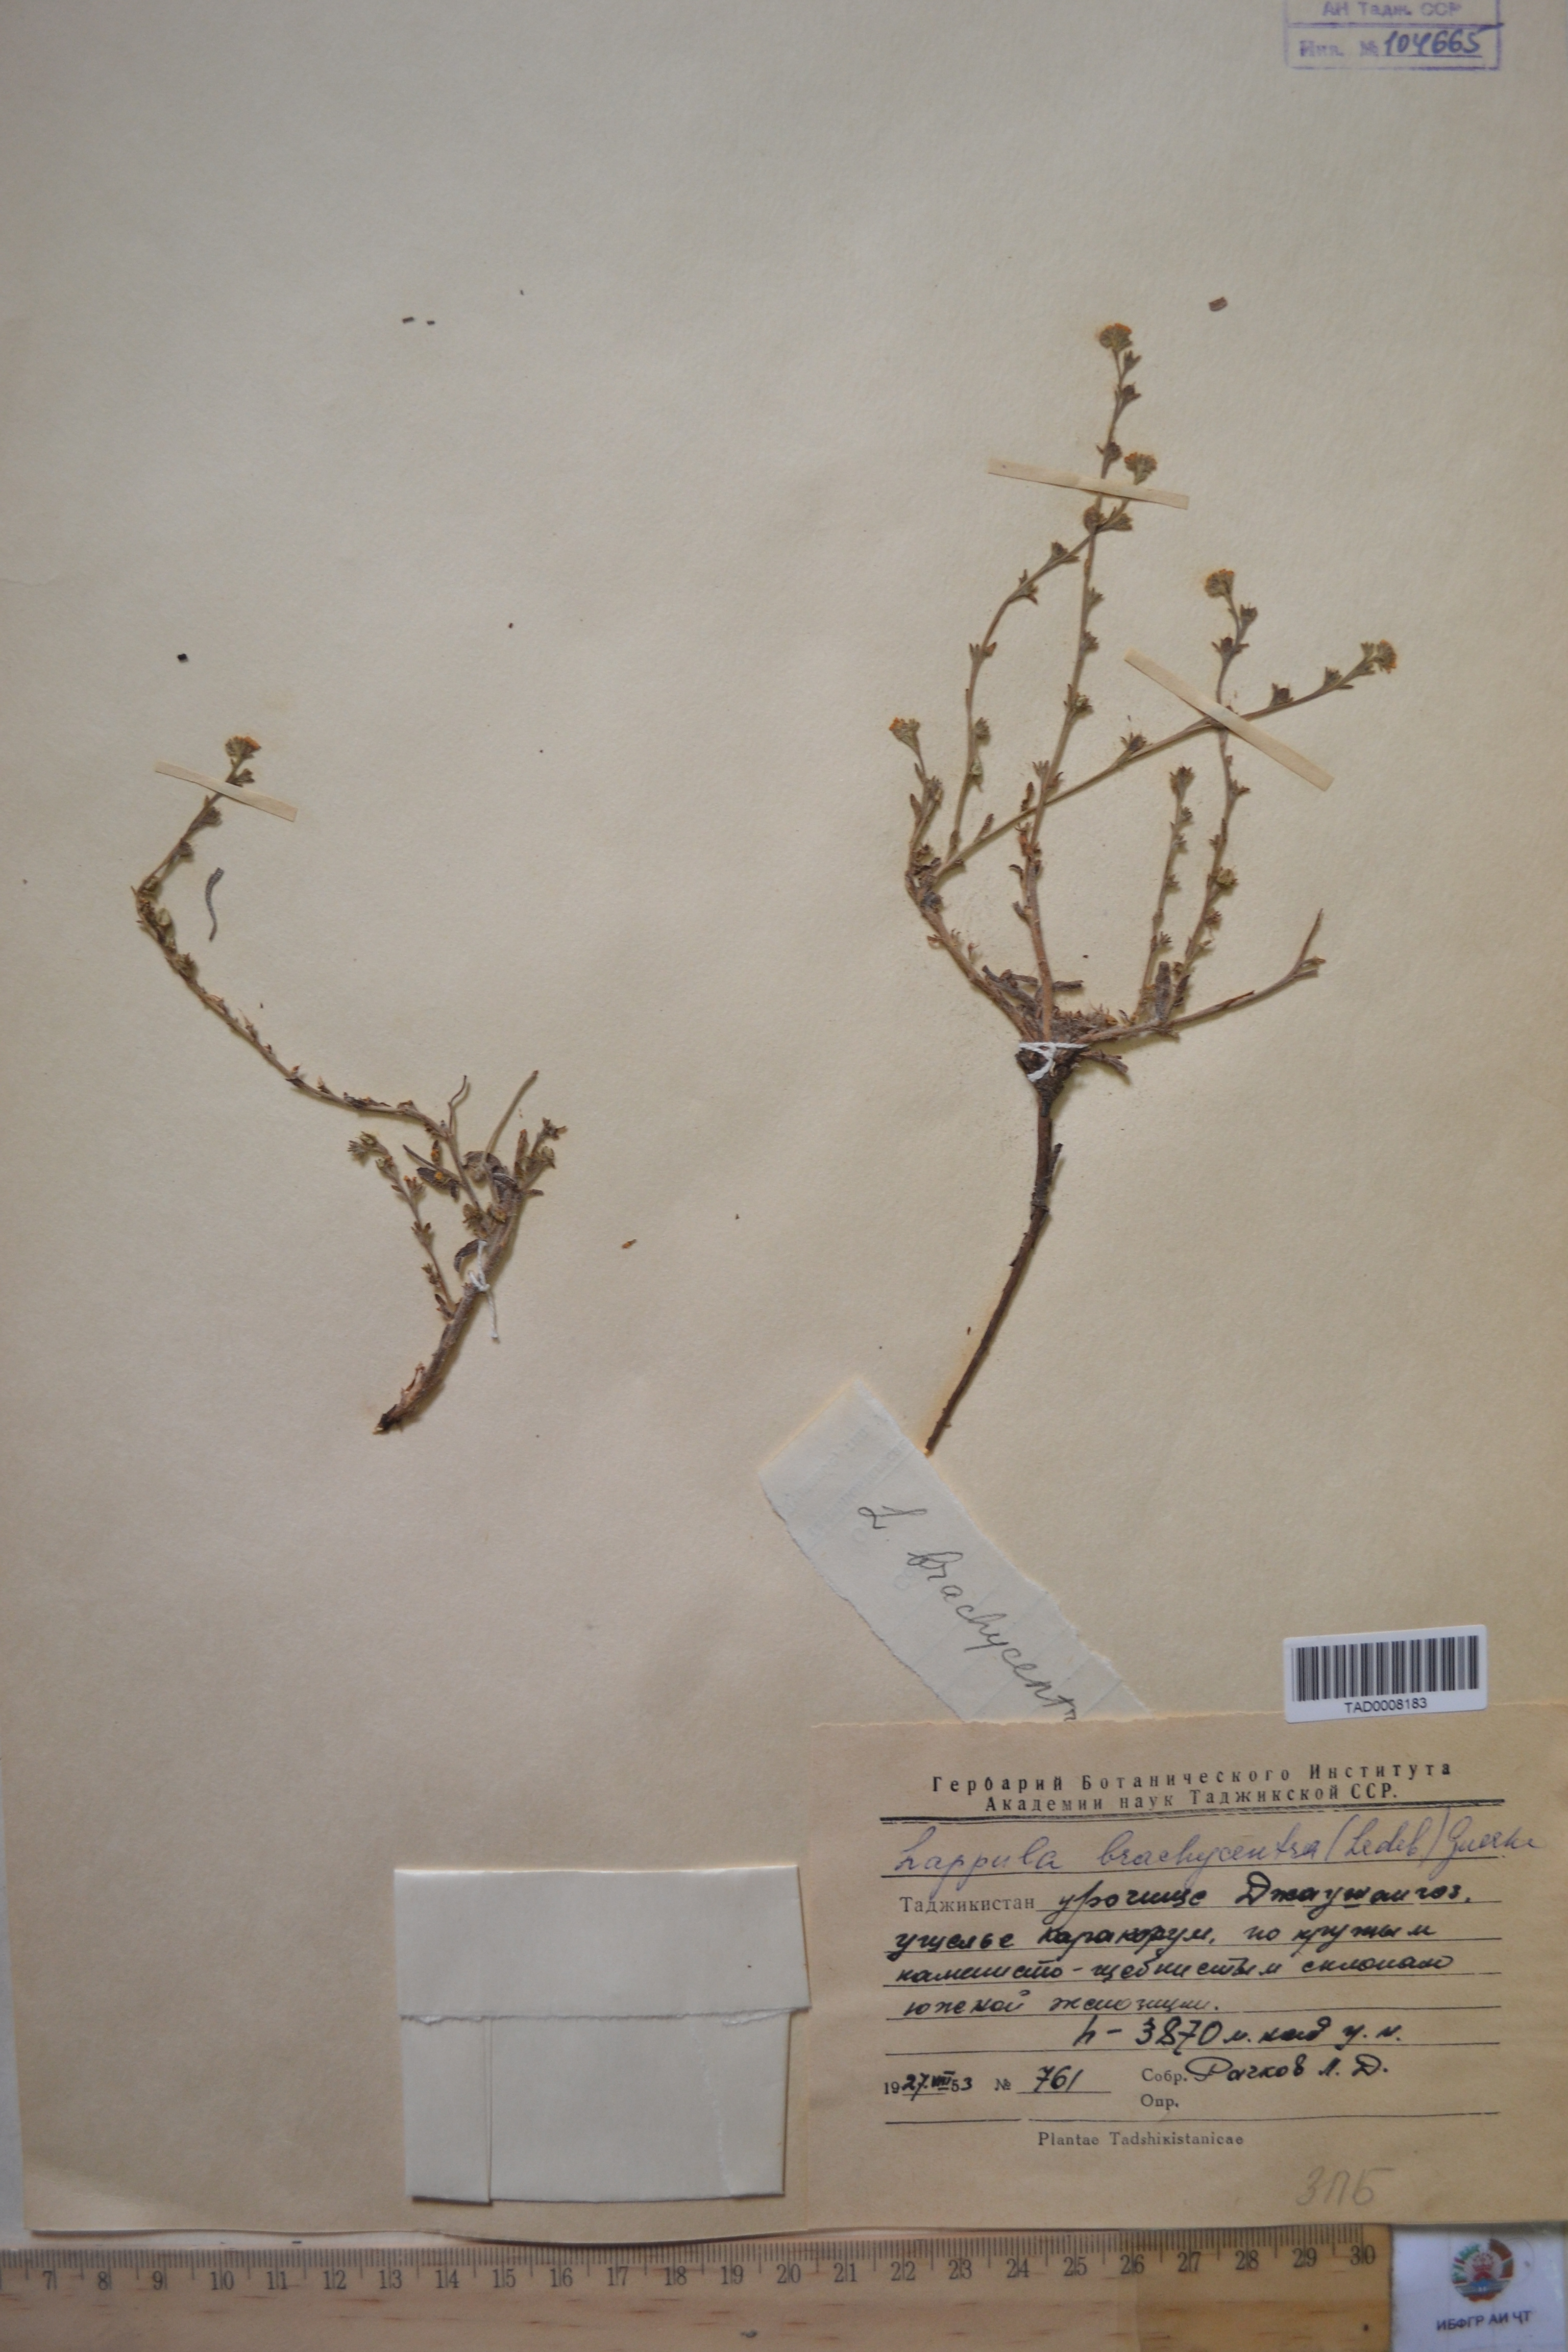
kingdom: Plantae
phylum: Tracheophyta
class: Magnoliopsida
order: Boraginales
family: Boraginaceae
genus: Lappula
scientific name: Lappula brachycentra
